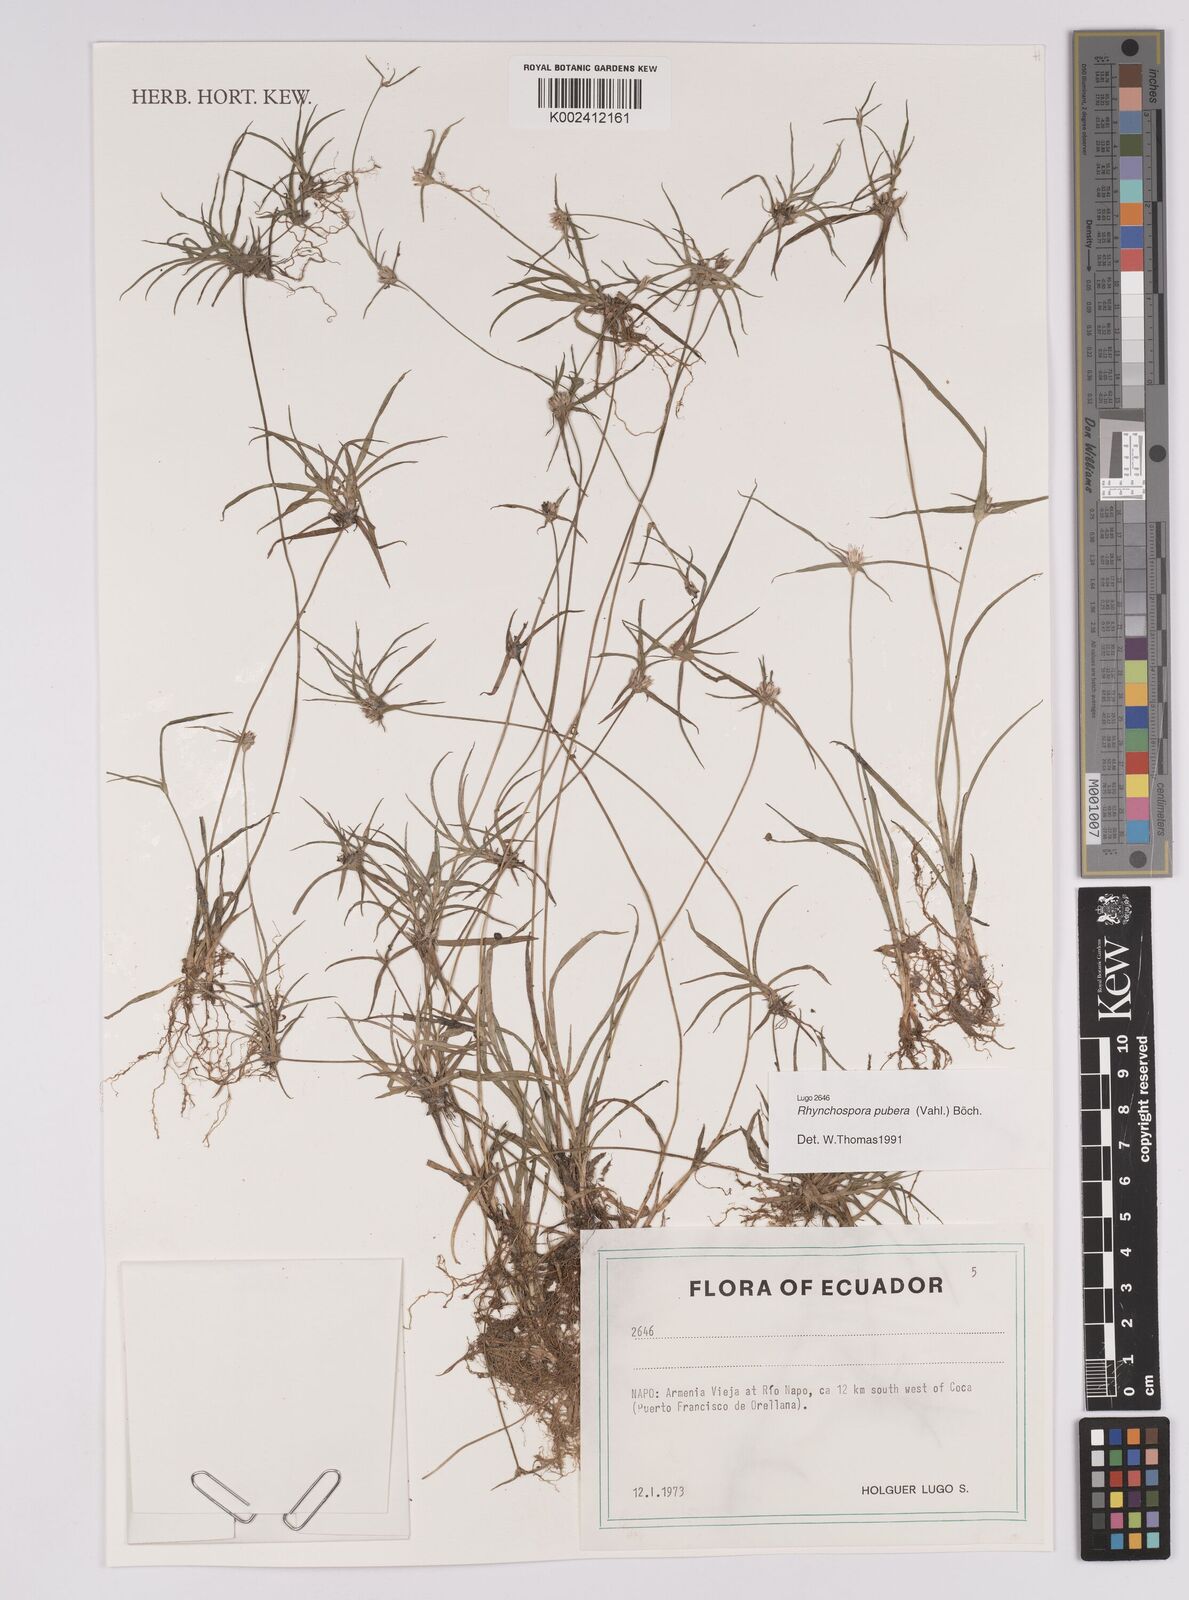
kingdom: Plantae
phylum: Tracheophyta
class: Liliopsida
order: Poales
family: Cyperaceae
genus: Rhynchospora
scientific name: Rhynchospora pubera
